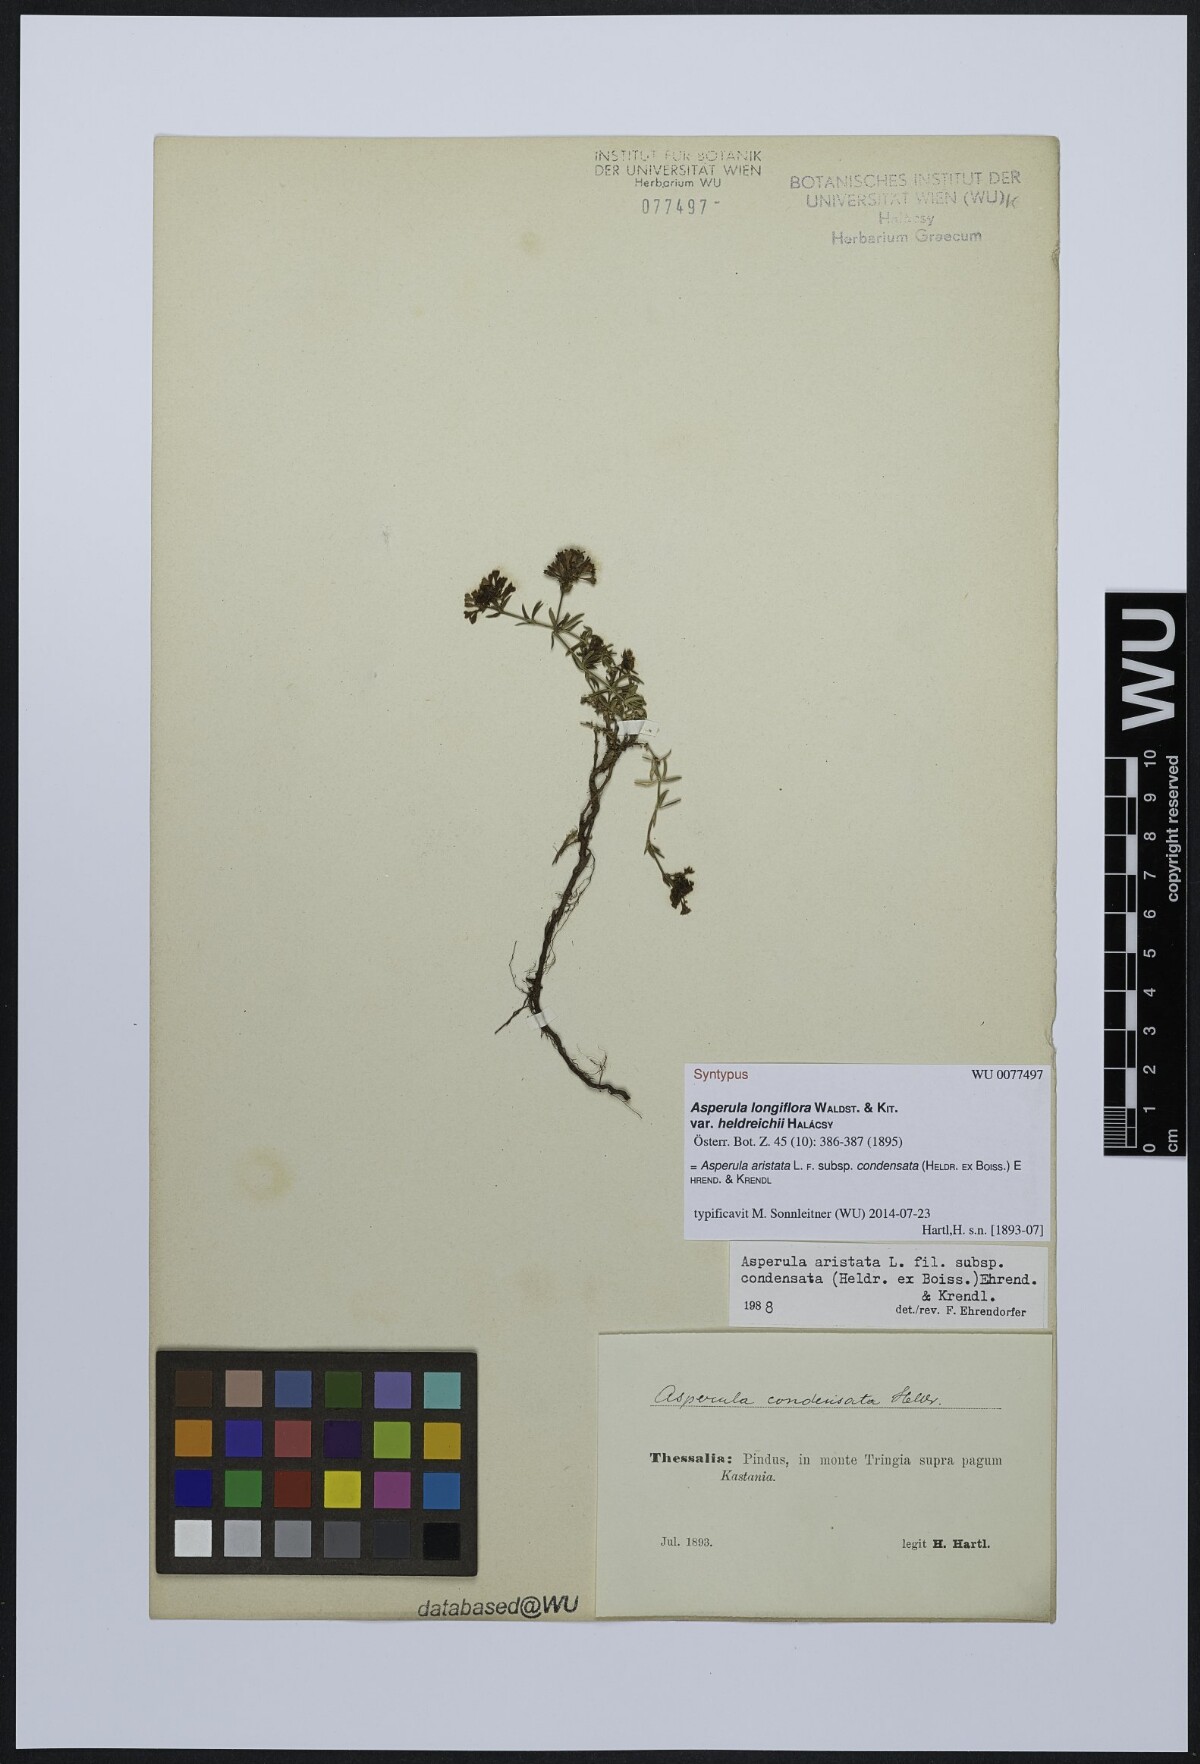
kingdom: Plantae
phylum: Tracheophyta
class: Magnoliopsida
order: Gentianales
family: Rubiaceae
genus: Asperula
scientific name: Asperula longiflora
